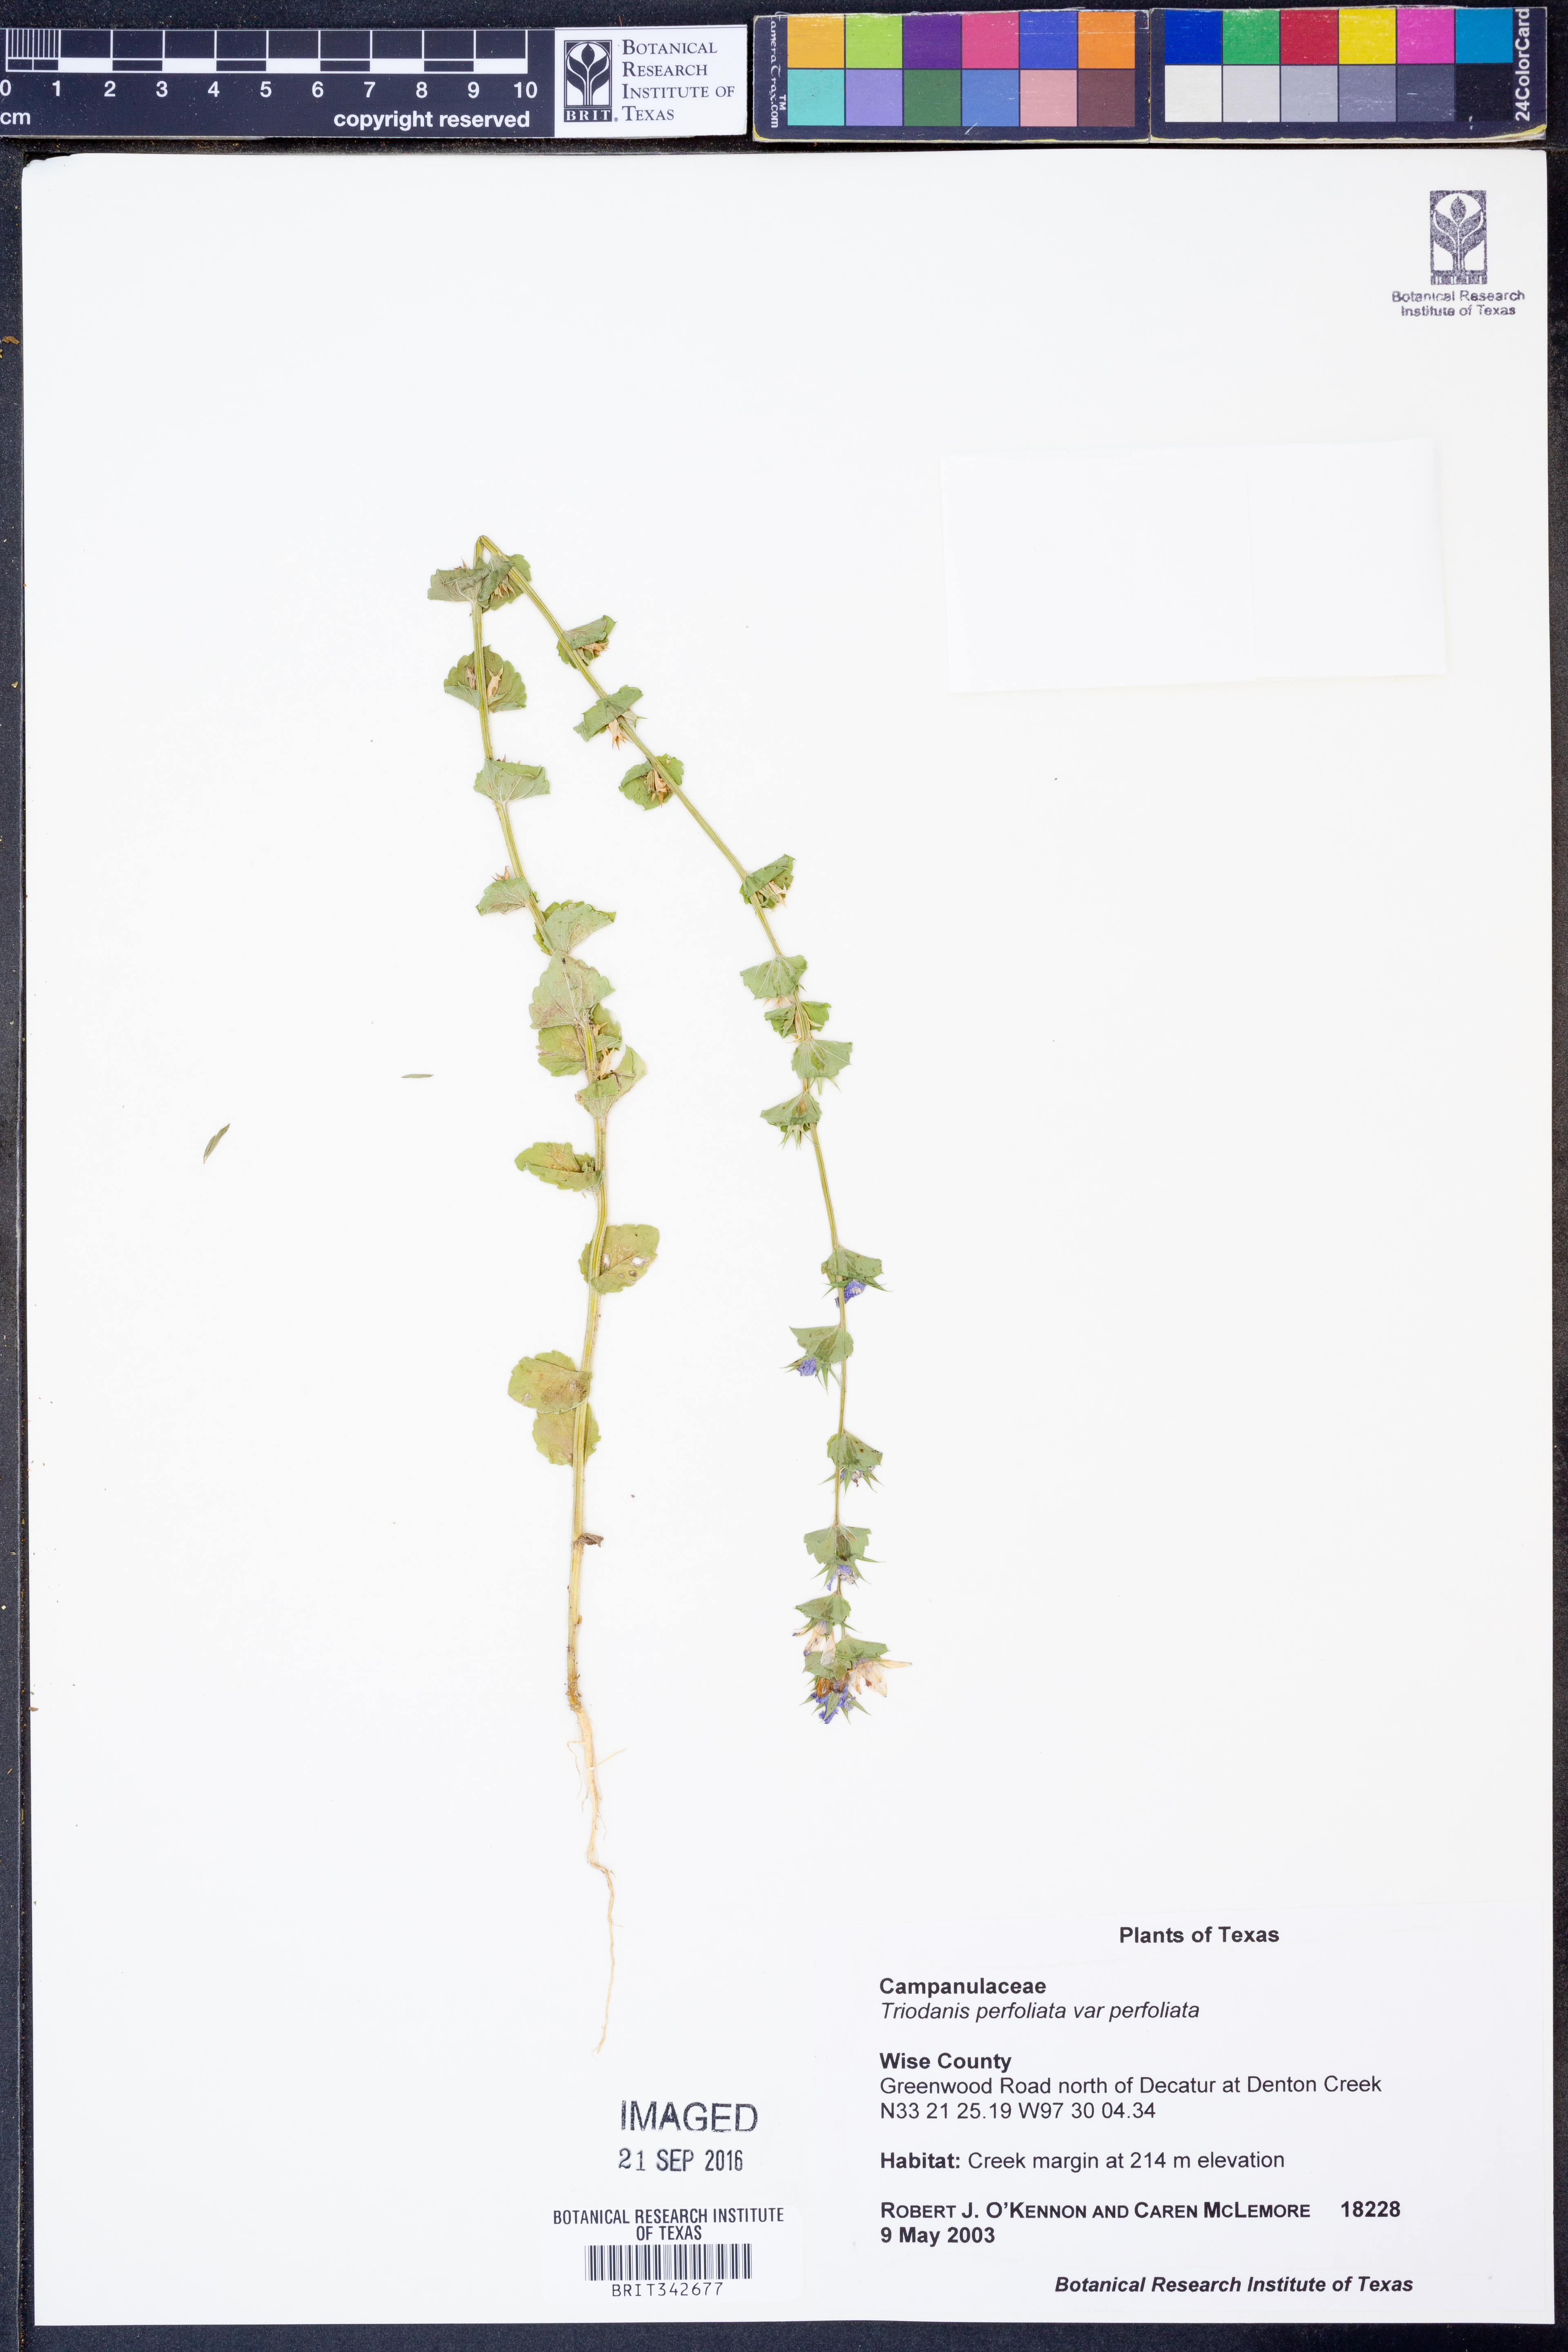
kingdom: Plantae
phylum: Tracheophyta
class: Magnoliopsida
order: Asterales
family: Campanulaceae
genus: Triodanis
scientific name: Triodanis perfoliata
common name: Clasping venus' looking-glass
